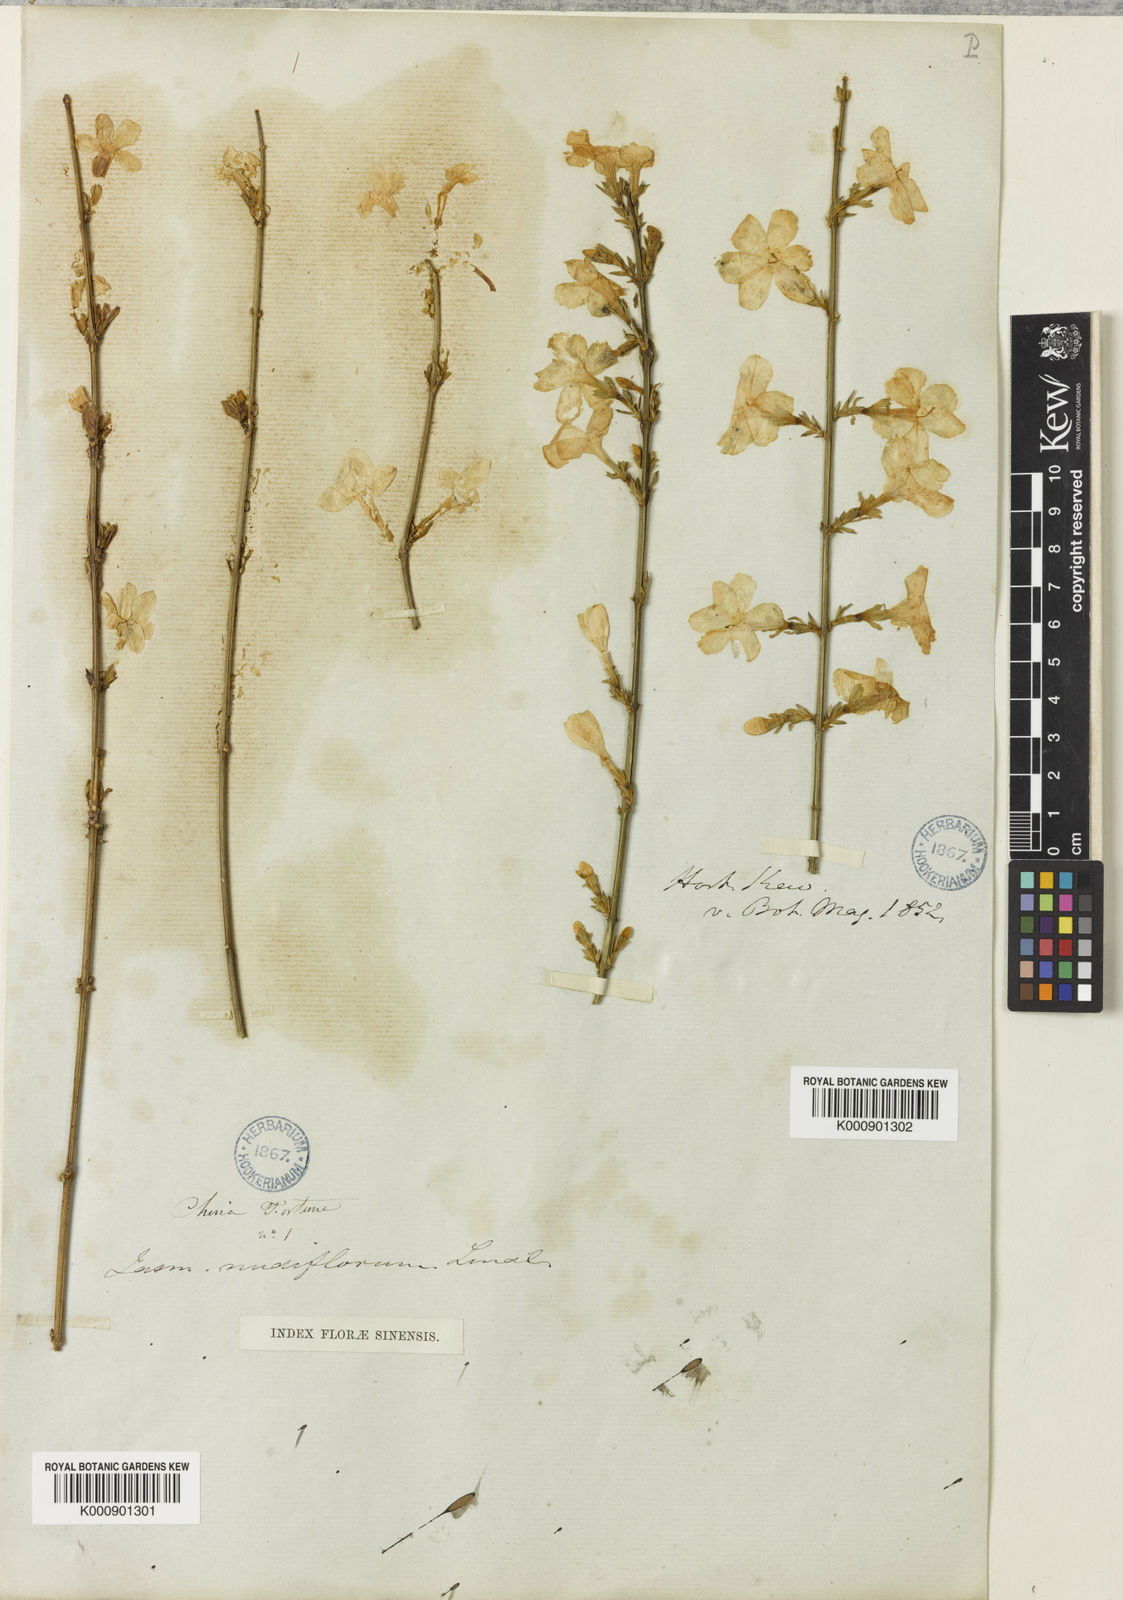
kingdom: Plantae
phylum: Tracheophyta
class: Magnoliopsida
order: Lamiales
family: Oleaceae
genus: Jasminum
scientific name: Jasminum nudiflorum
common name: Winter jasmine
